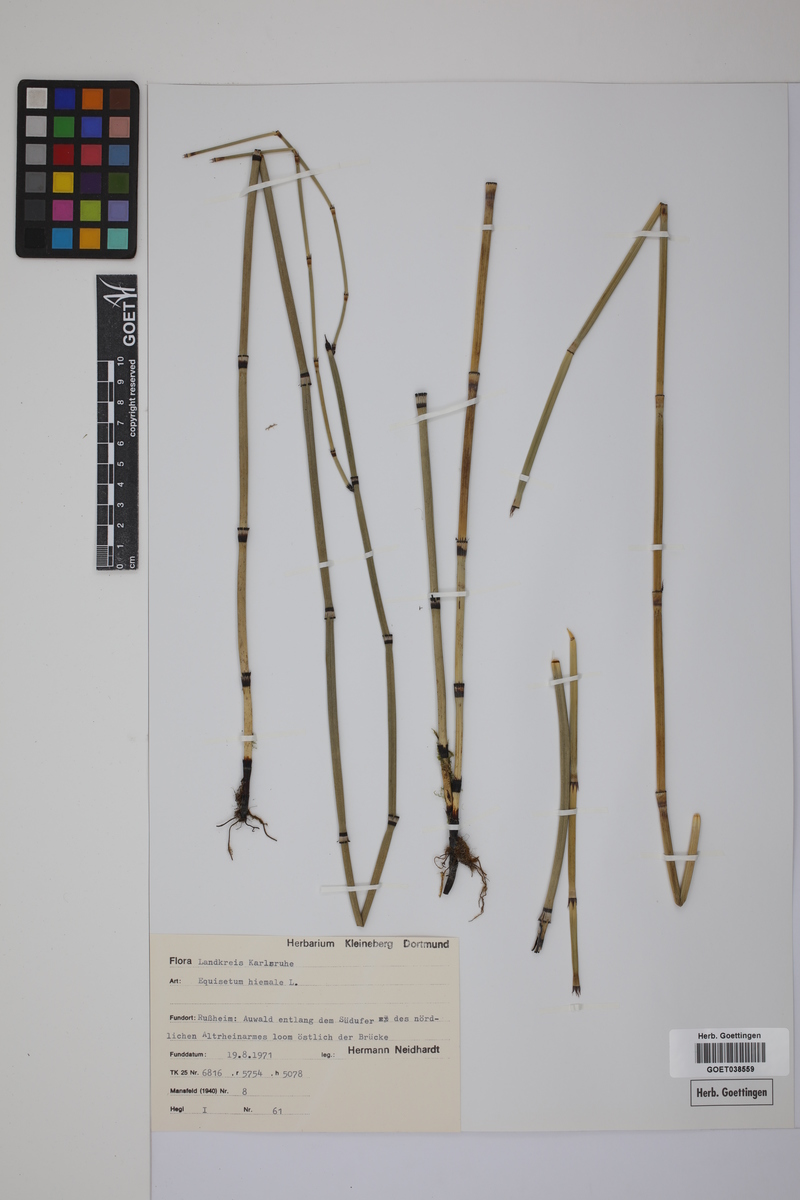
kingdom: Plantae
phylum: Tracheophyta
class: Polypodiopsida
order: Equisetales
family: Equisetaceae
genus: Equisetum
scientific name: Equisetum hyemale
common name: Rough horsetail
